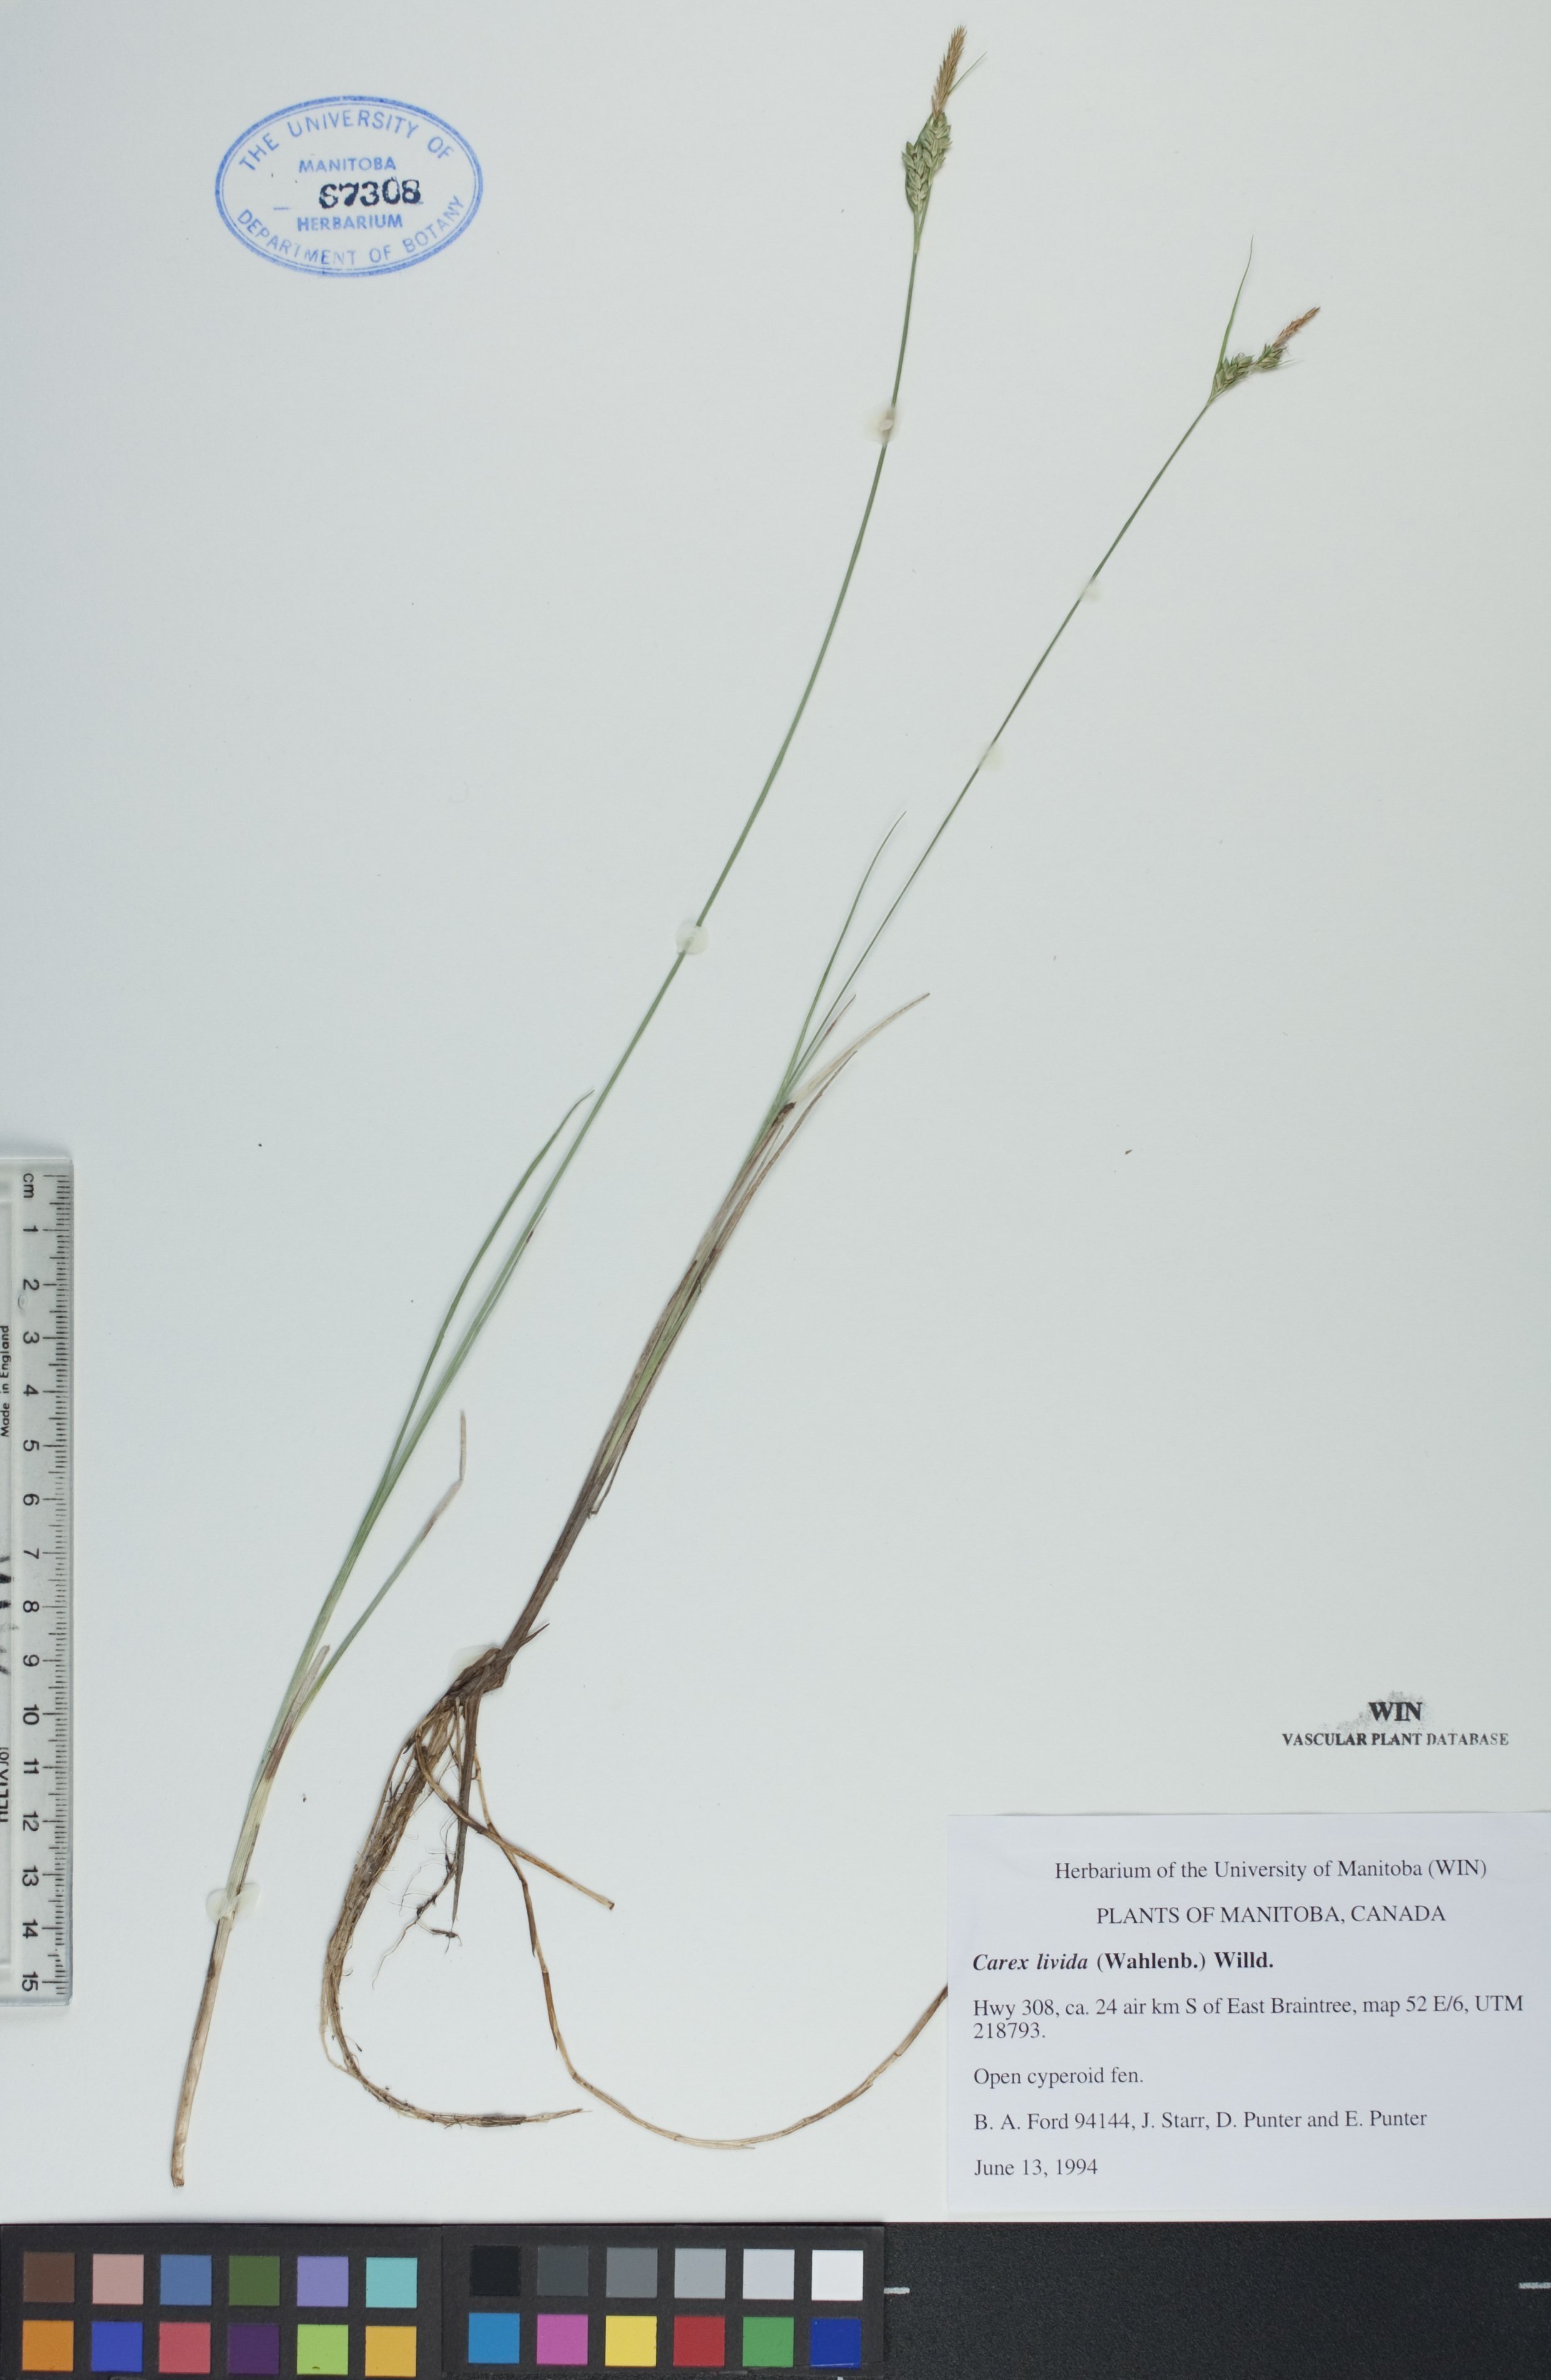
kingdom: Plantae
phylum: Tracheophyta
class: Liliopsida
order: Poales
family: Cyperaceae
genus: Carex
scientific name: Carex livida
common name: Livid sedge
